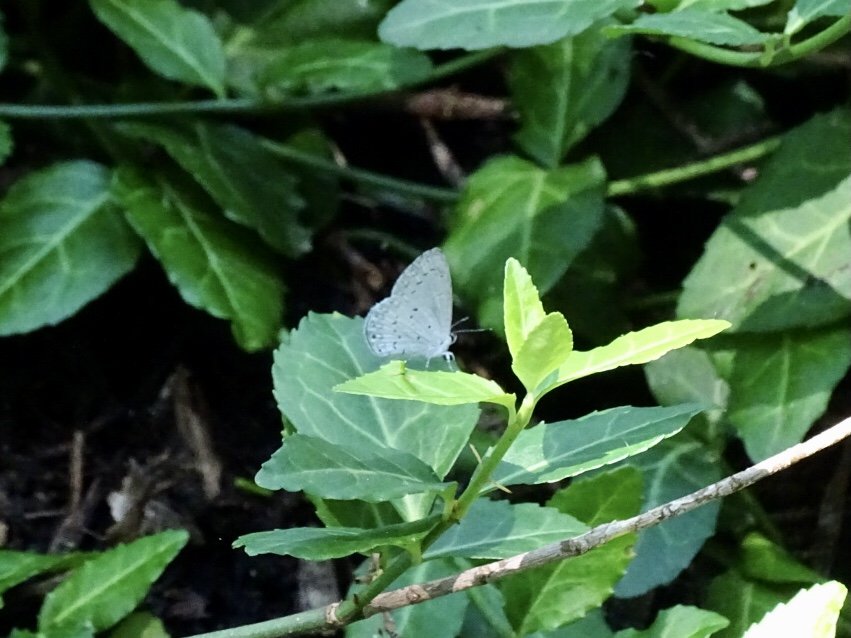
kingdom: Animalia
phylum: Arthropoda
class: Insecta
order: Lepidoptera
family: Lycaenidae
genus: Cyaniris
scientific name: Cyaniris neglecta
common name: Summer Azure
